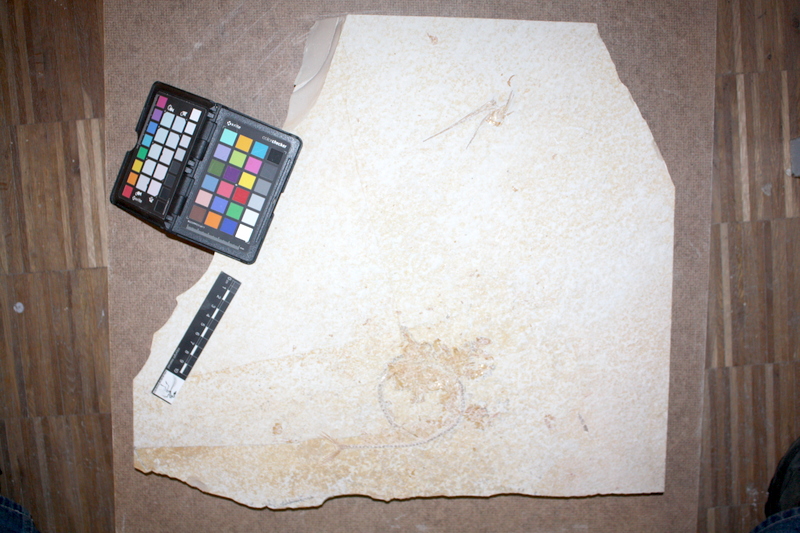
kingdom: Animalia
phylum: Chordata
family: Aspidorhynchidae
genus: Belonostomus
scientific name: Belonostomus tenuirostris
